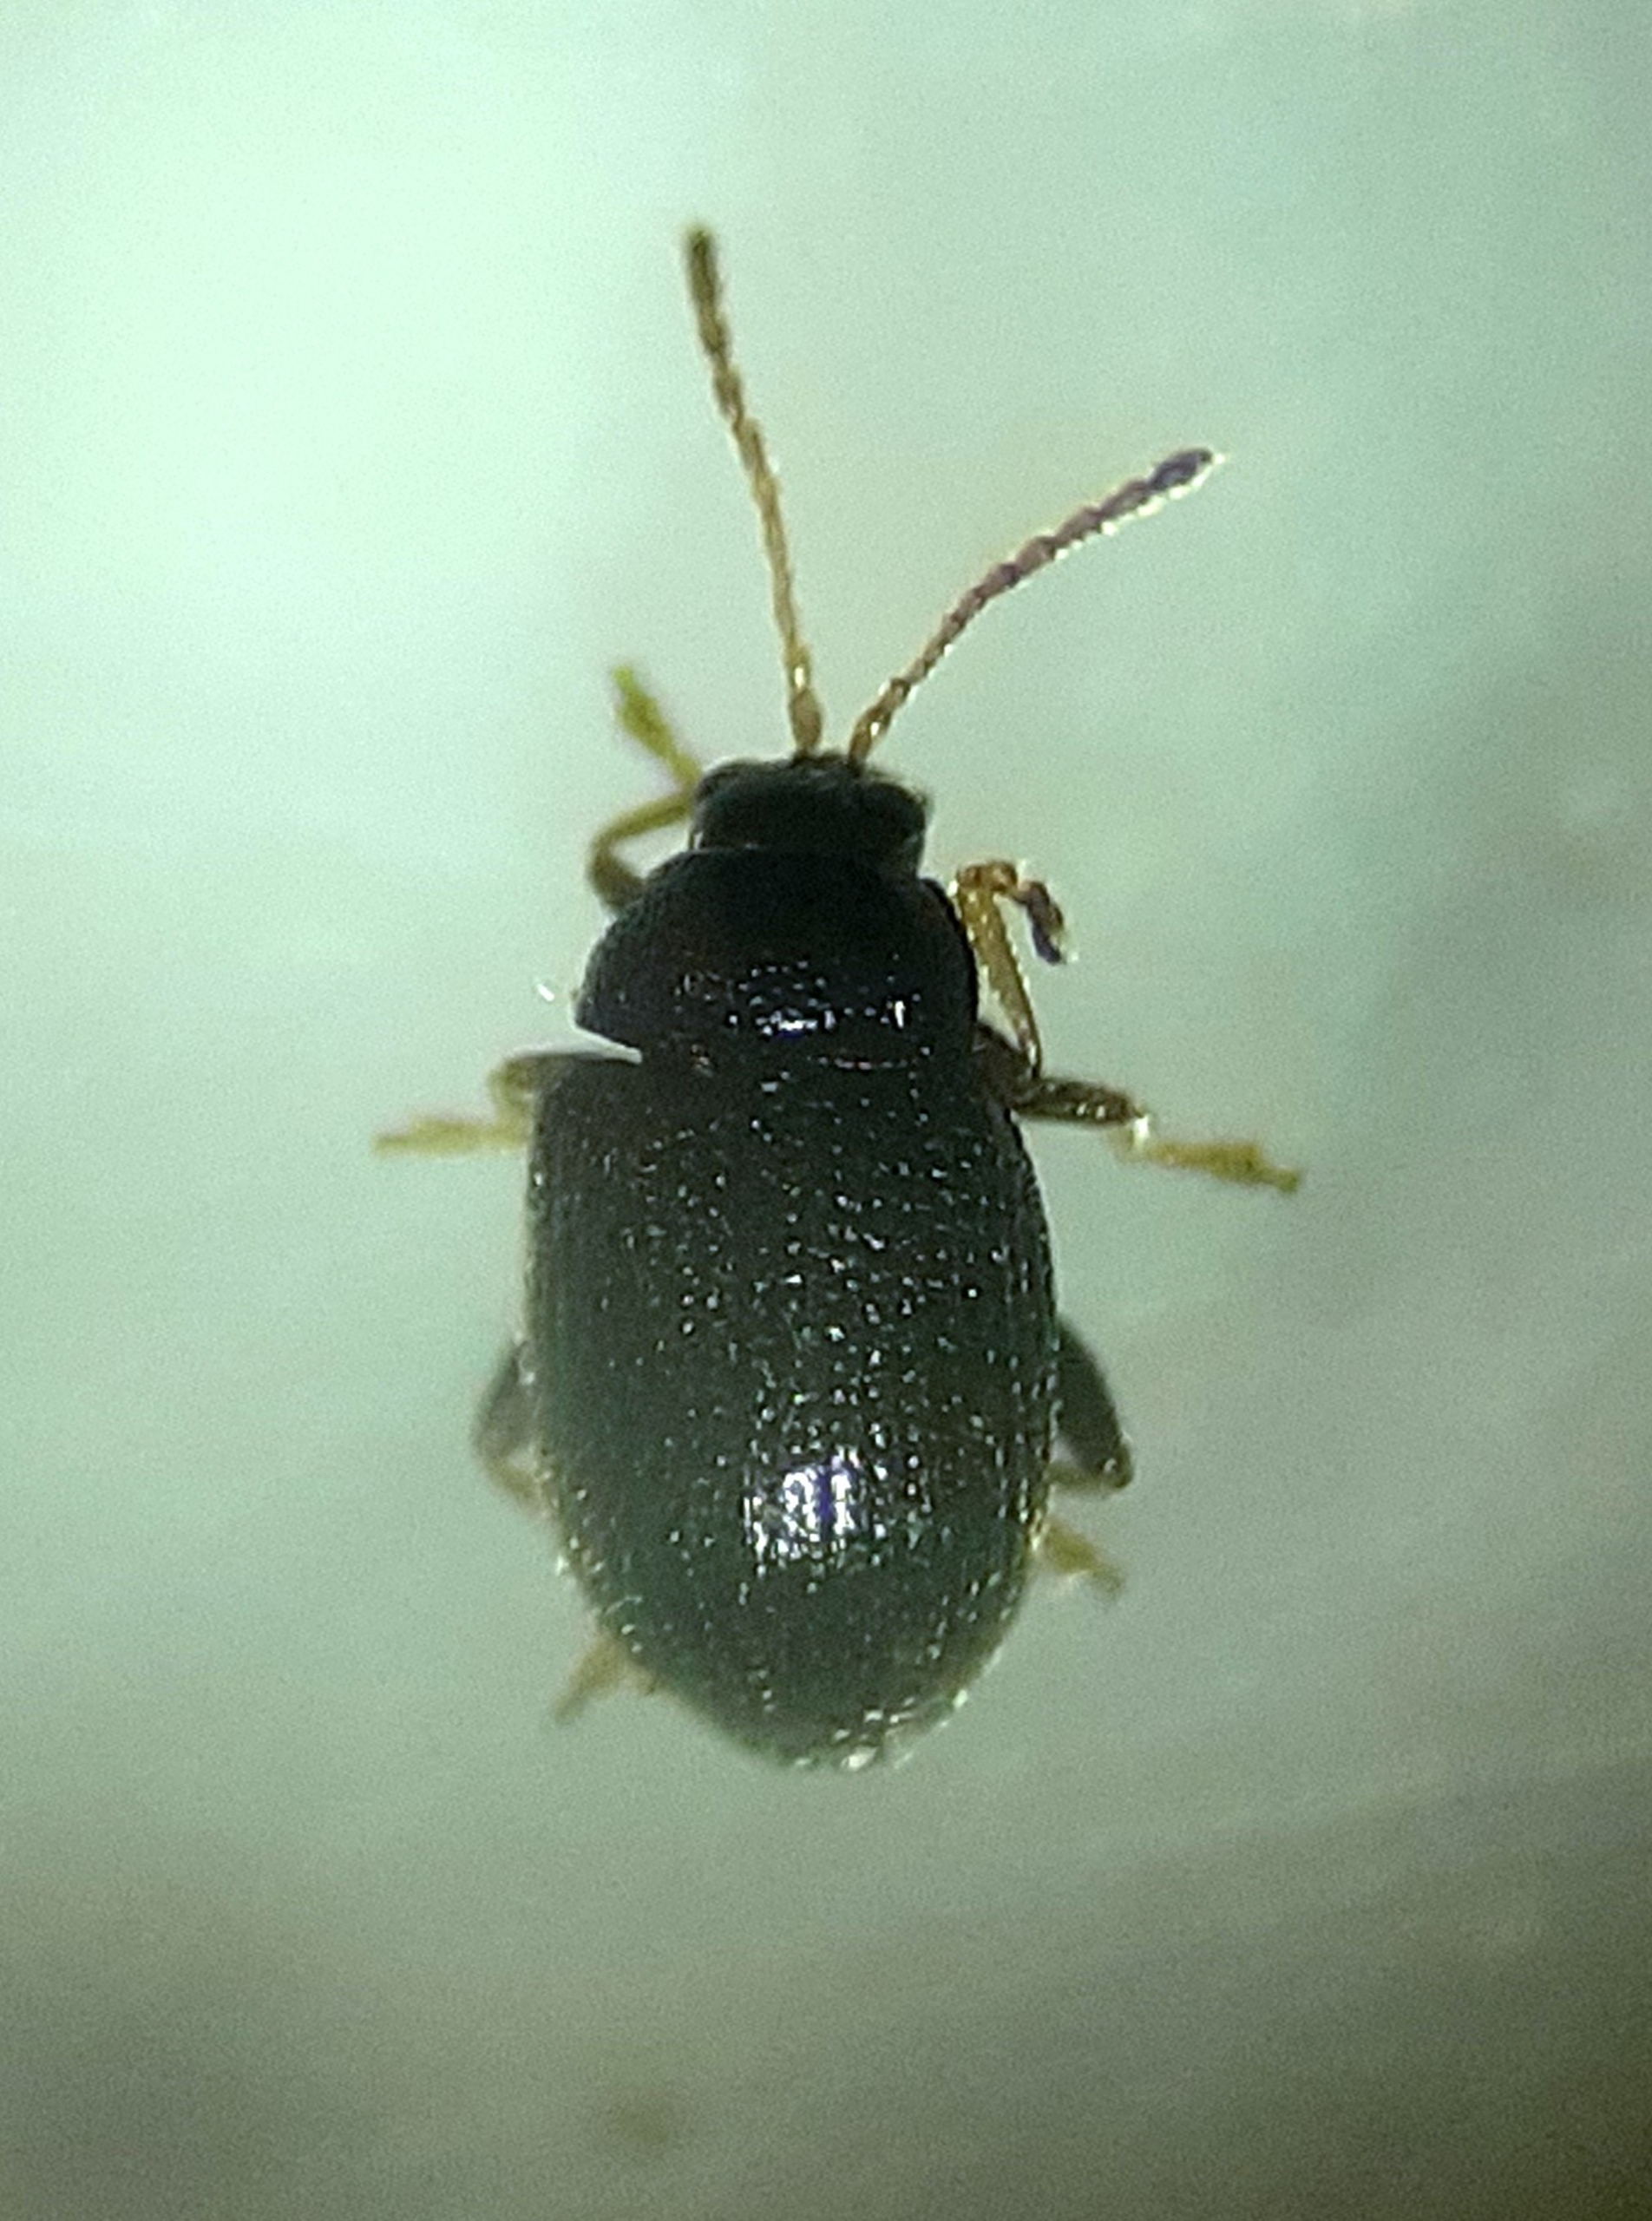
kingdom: Animalia
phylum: Arthropoda
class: Insecta
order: Coleoptera
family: Chrysomelidae
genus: Epitrix
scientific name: Epitrix pubescens
